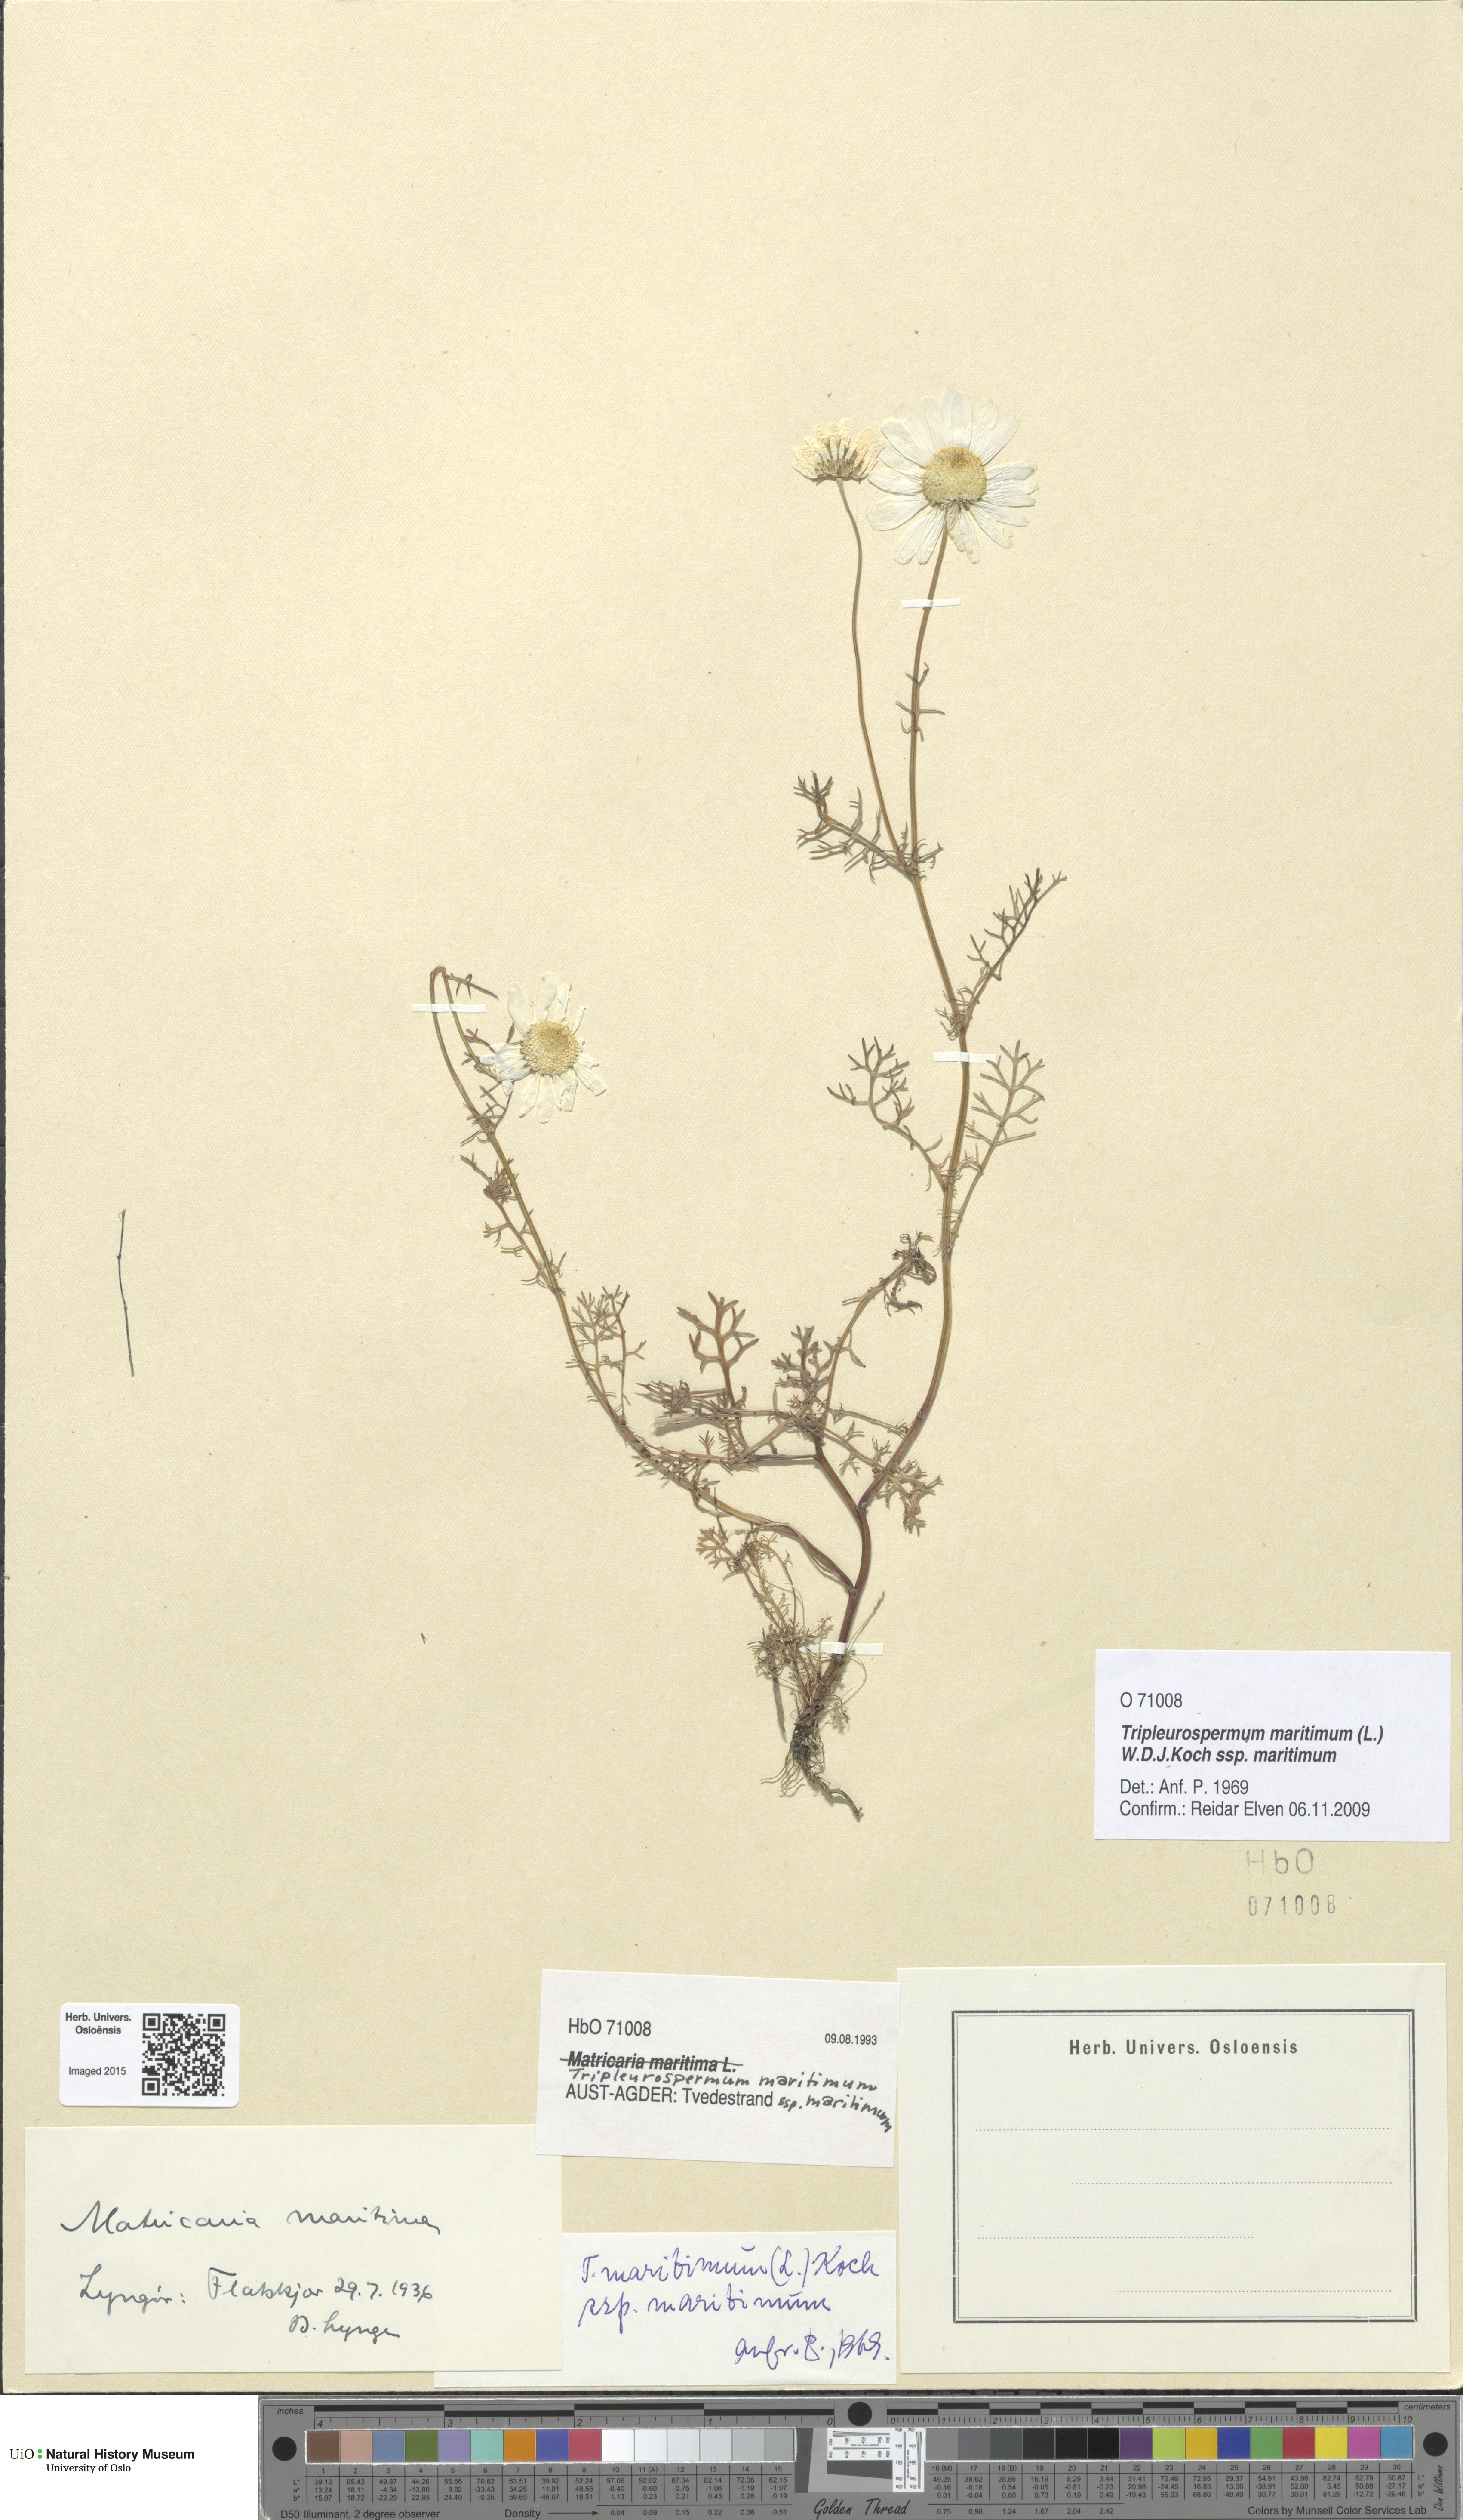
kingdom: Plantae
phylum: Tracheophyta
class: Magnoliopsida
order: Asterales
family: Asteraceae
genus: Tripleurospermum
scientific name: Tripleurospermum maritimum
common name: Sea mayweed
